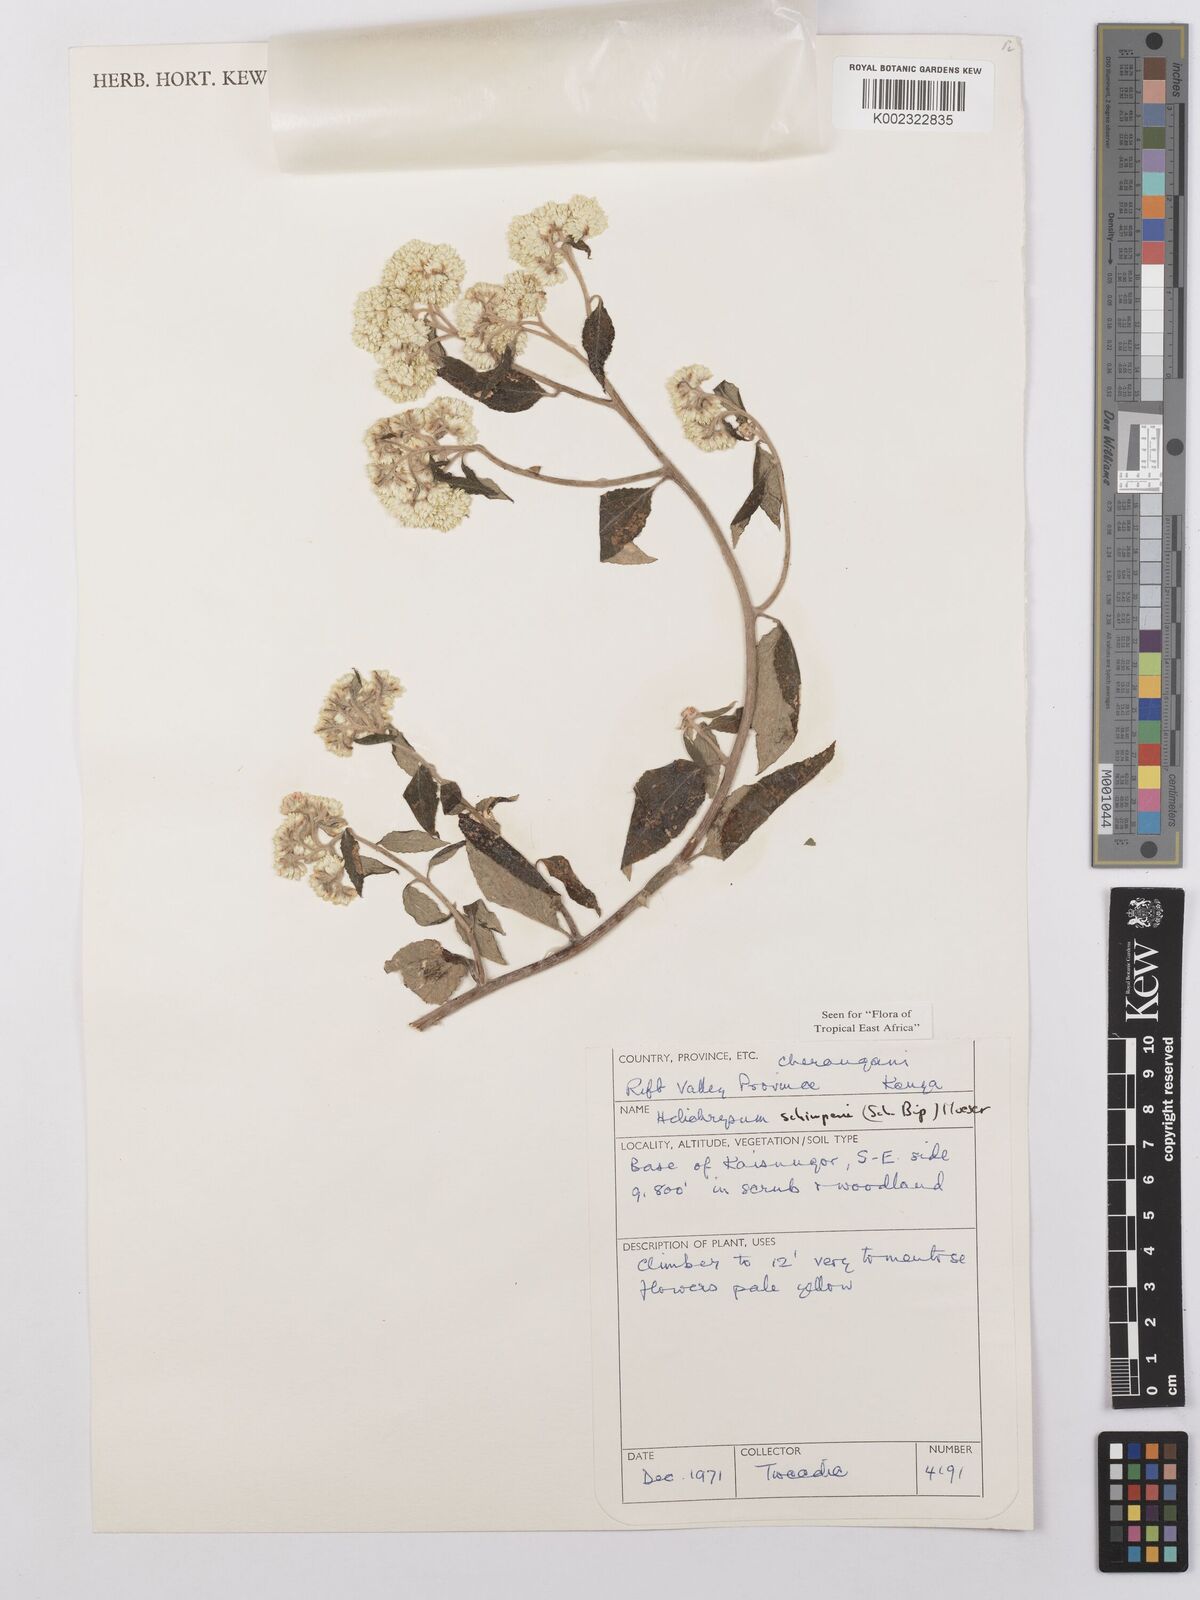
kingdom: Plantae
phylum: Tracheophyta
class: Magnoliopsida
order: Asterales
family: Asteraceae
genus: Helichrysum
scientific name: Helichrysum schimperi
